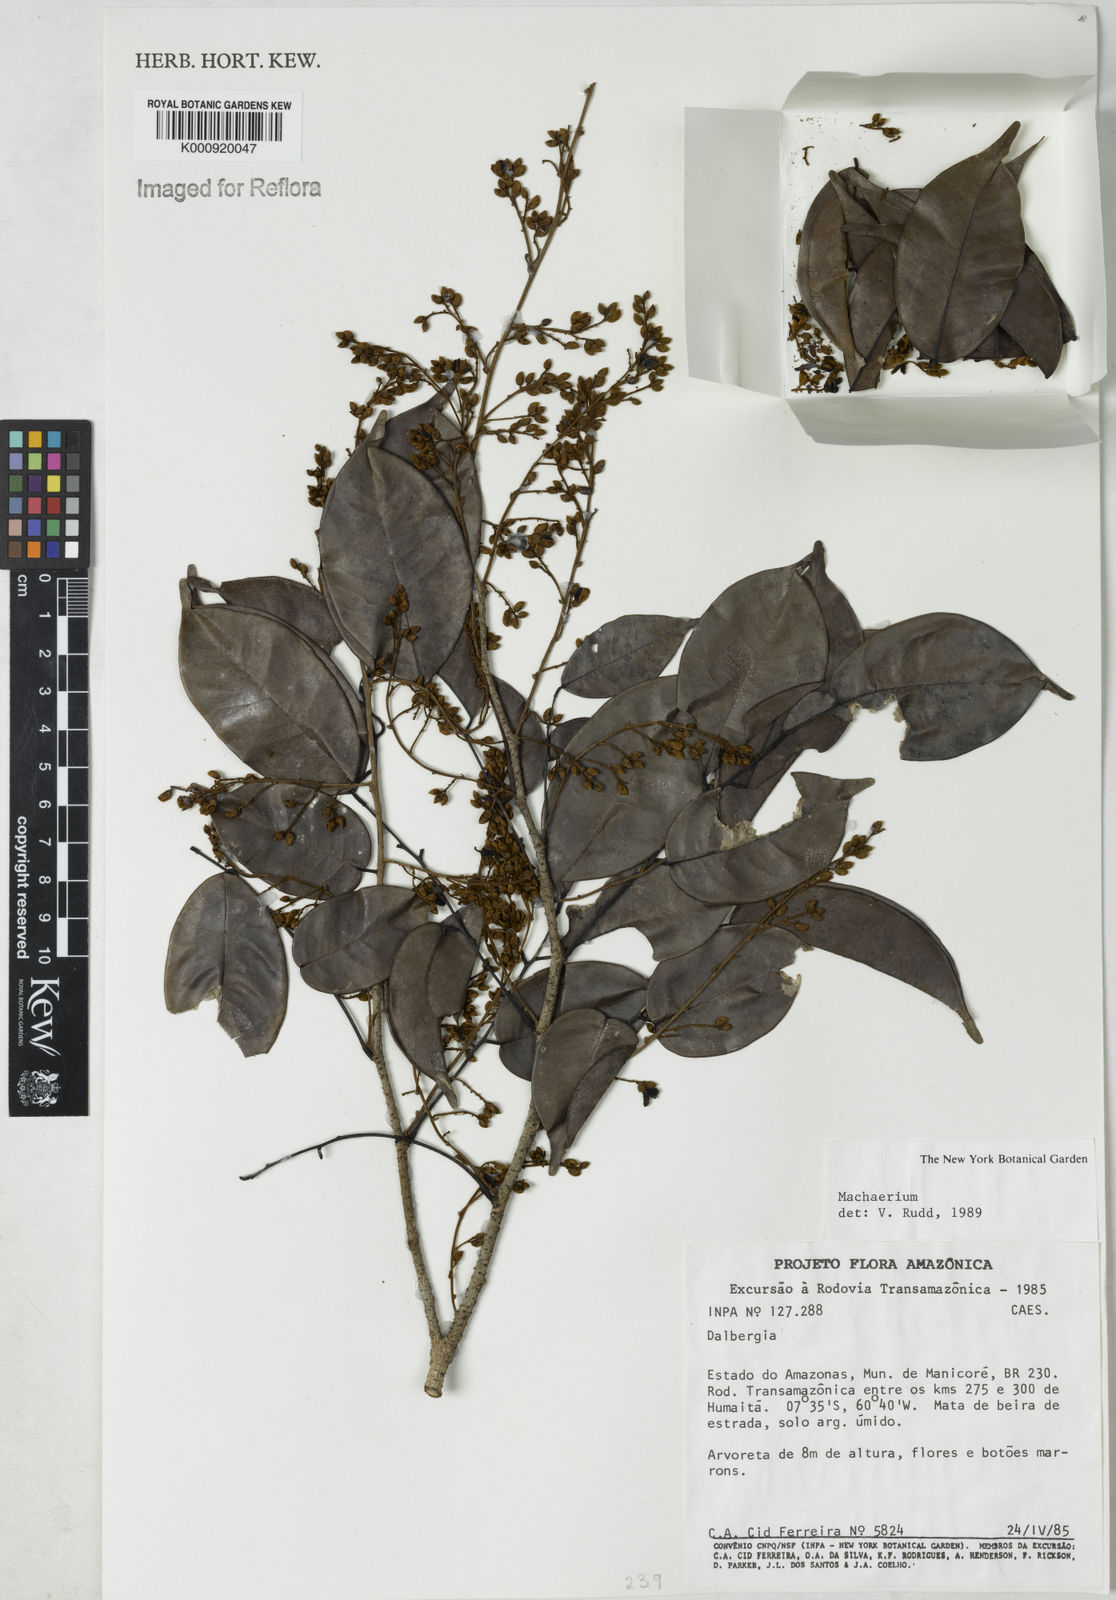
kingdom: Plantae
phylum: Tracheophyta
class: Magnoliopsida
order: Fabales
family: Fabaceae
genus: Machaerium
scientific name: Machaerium
